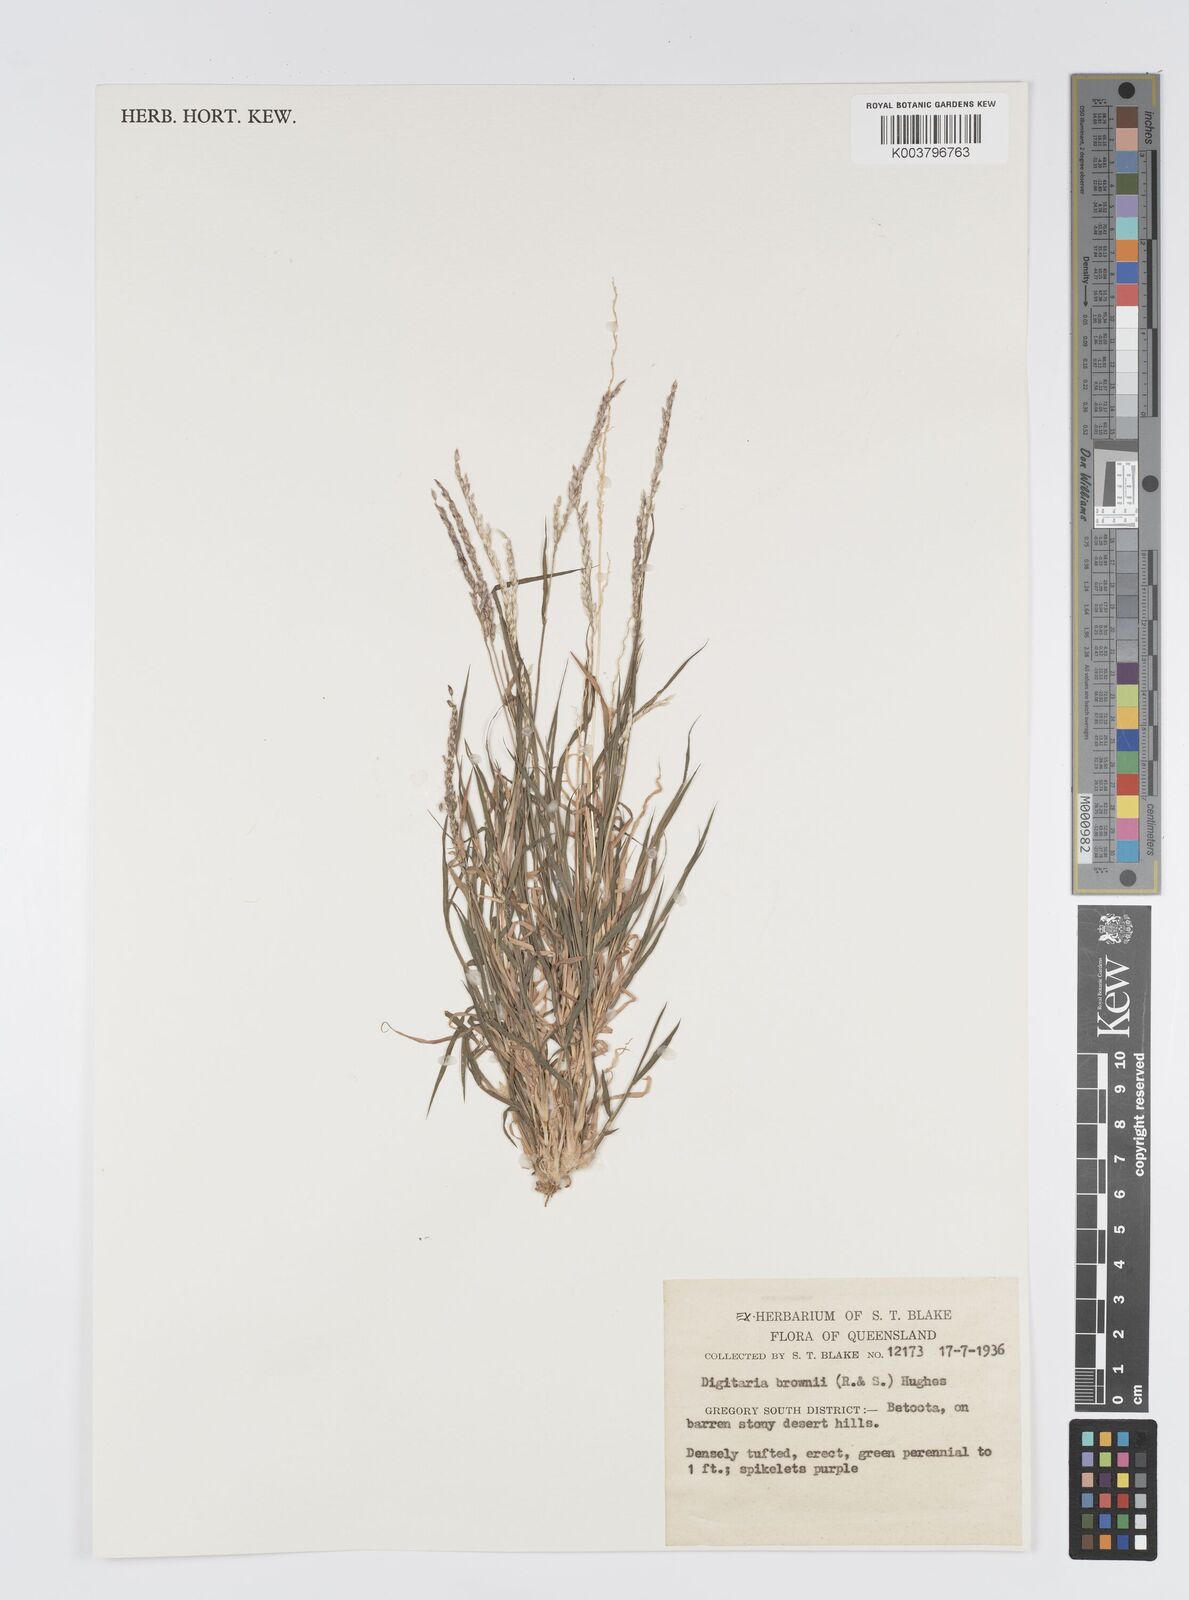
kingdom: Plantae
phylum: Tracheophyta
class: Liliopsida
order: Poales
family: Poaceae
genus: Digitaria
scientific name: Digitaria brownii
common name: Cotton grass
